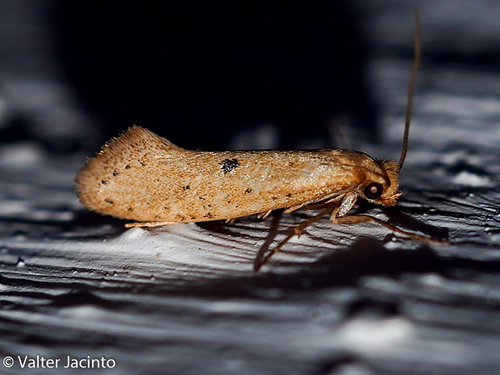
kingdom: Animalia
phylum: Arthropoda
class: Insecta
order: Lepidoptera
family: Tineidae
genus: Myrmecozela
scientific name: Myrmecozela ataxella
